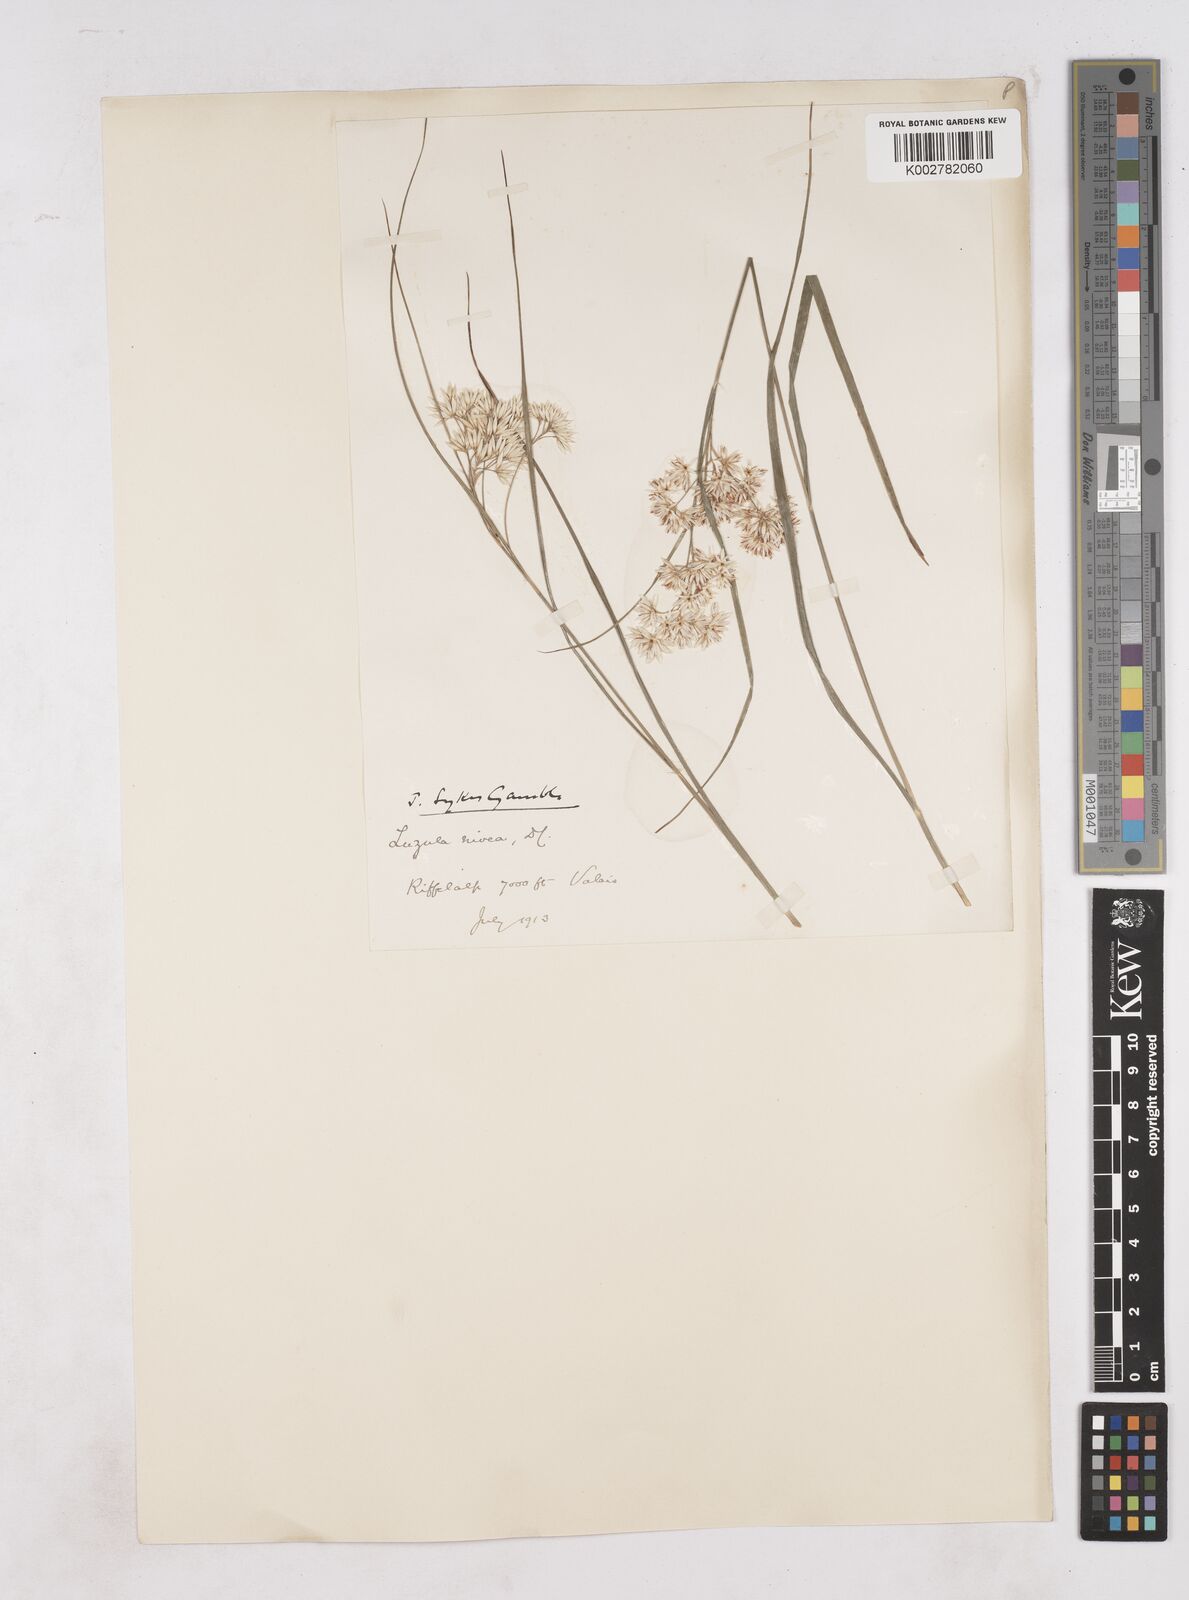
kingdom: Plantae
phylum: Tracheophyta
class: Liliopsida
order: Poales
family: Juncaceae
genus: Luzula
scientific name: Luzula nivea
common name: Snow-white wood-rush
